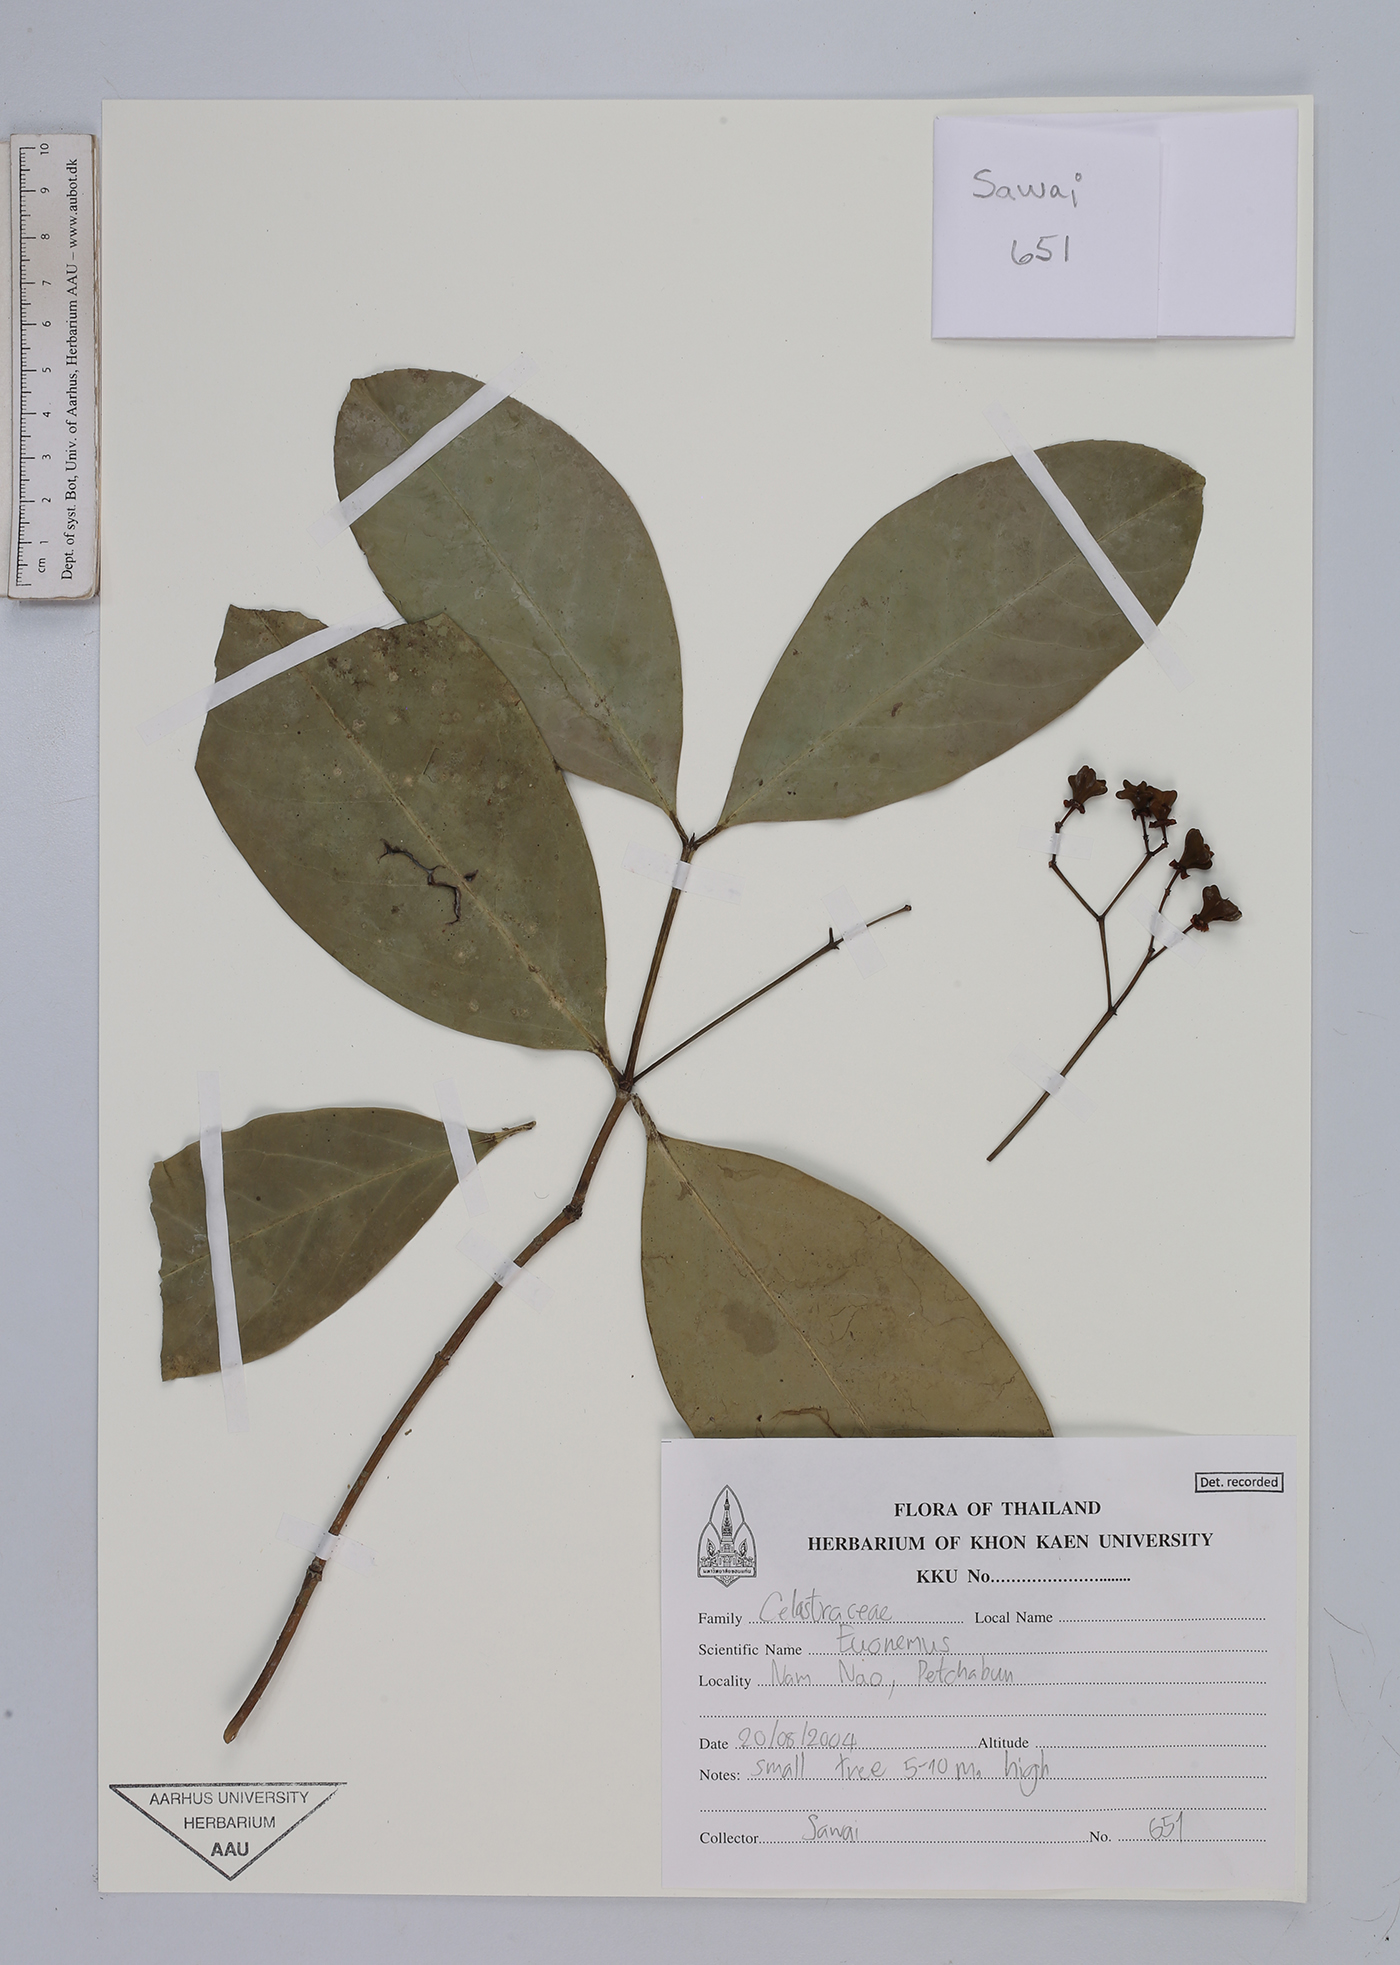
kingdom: Plantae
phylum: Tracheophyta
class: Magnoliopsida
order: Celastrales
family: Celastraceae
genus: Euonymus
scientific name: Euonymus
